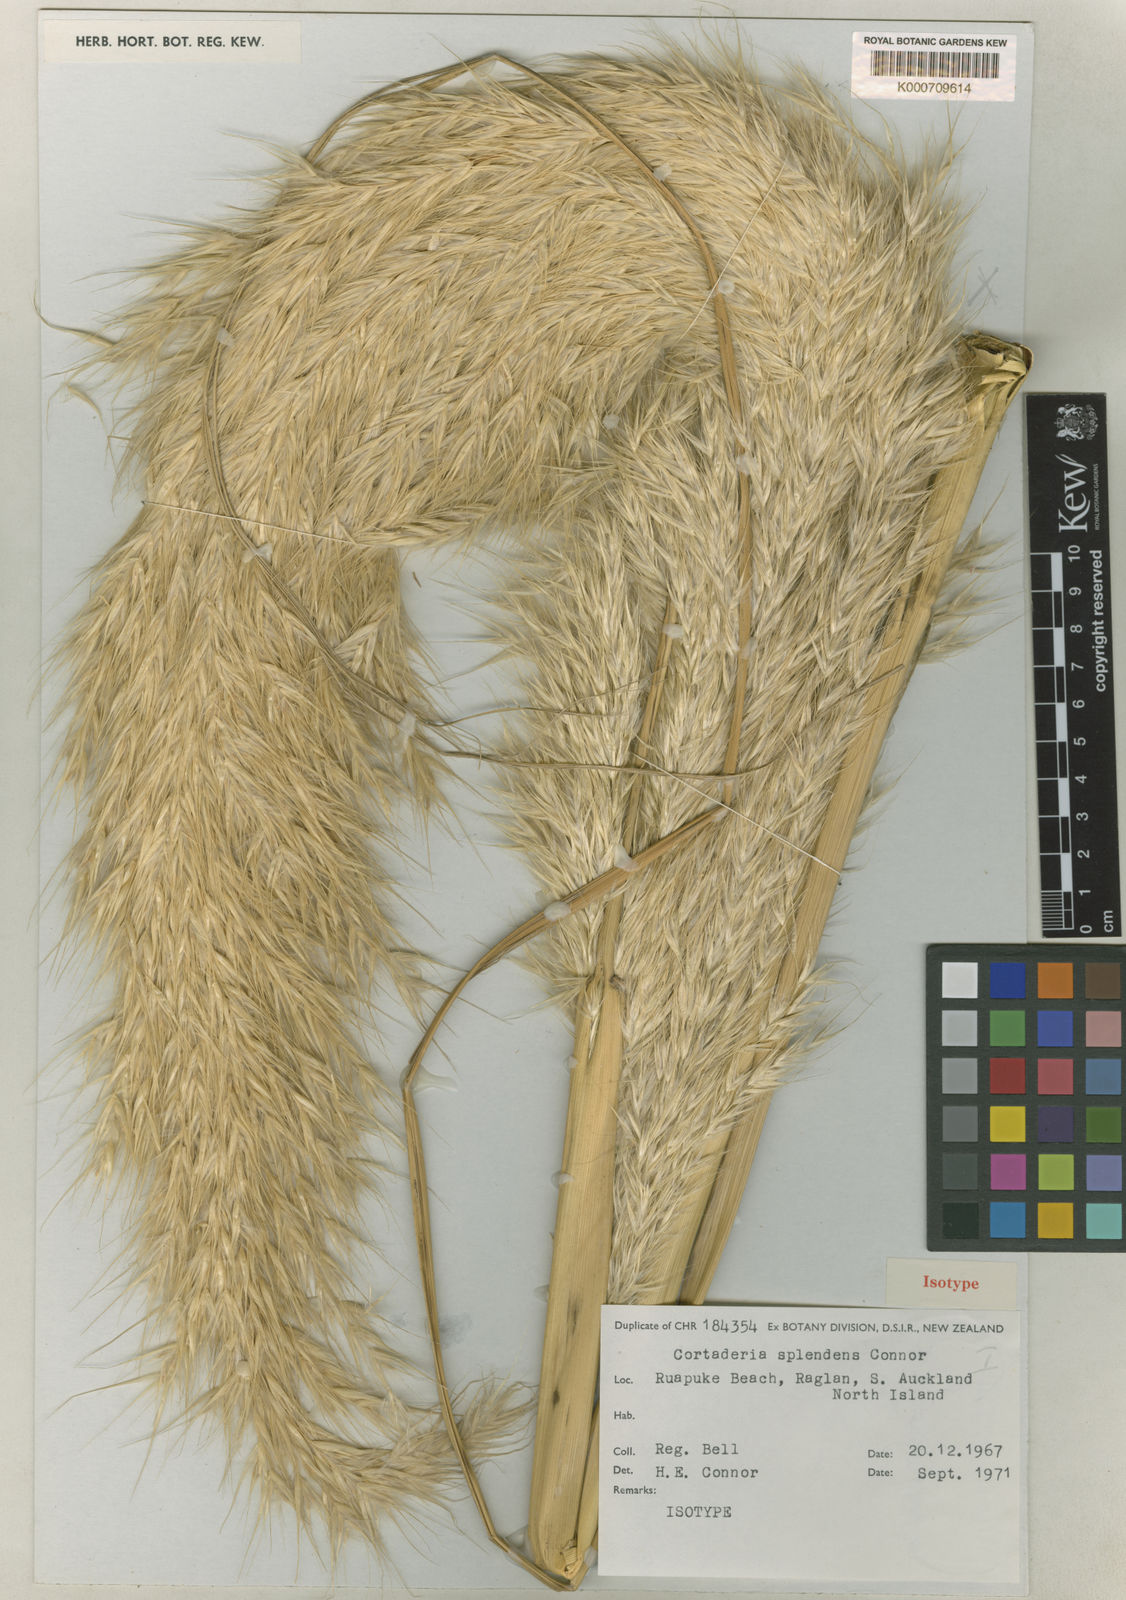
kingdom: Plantae
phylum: Tracheophyta
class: Liliopsida
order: Poales
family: Poaceae
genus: Austroderia
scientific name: Austroderia splendens
